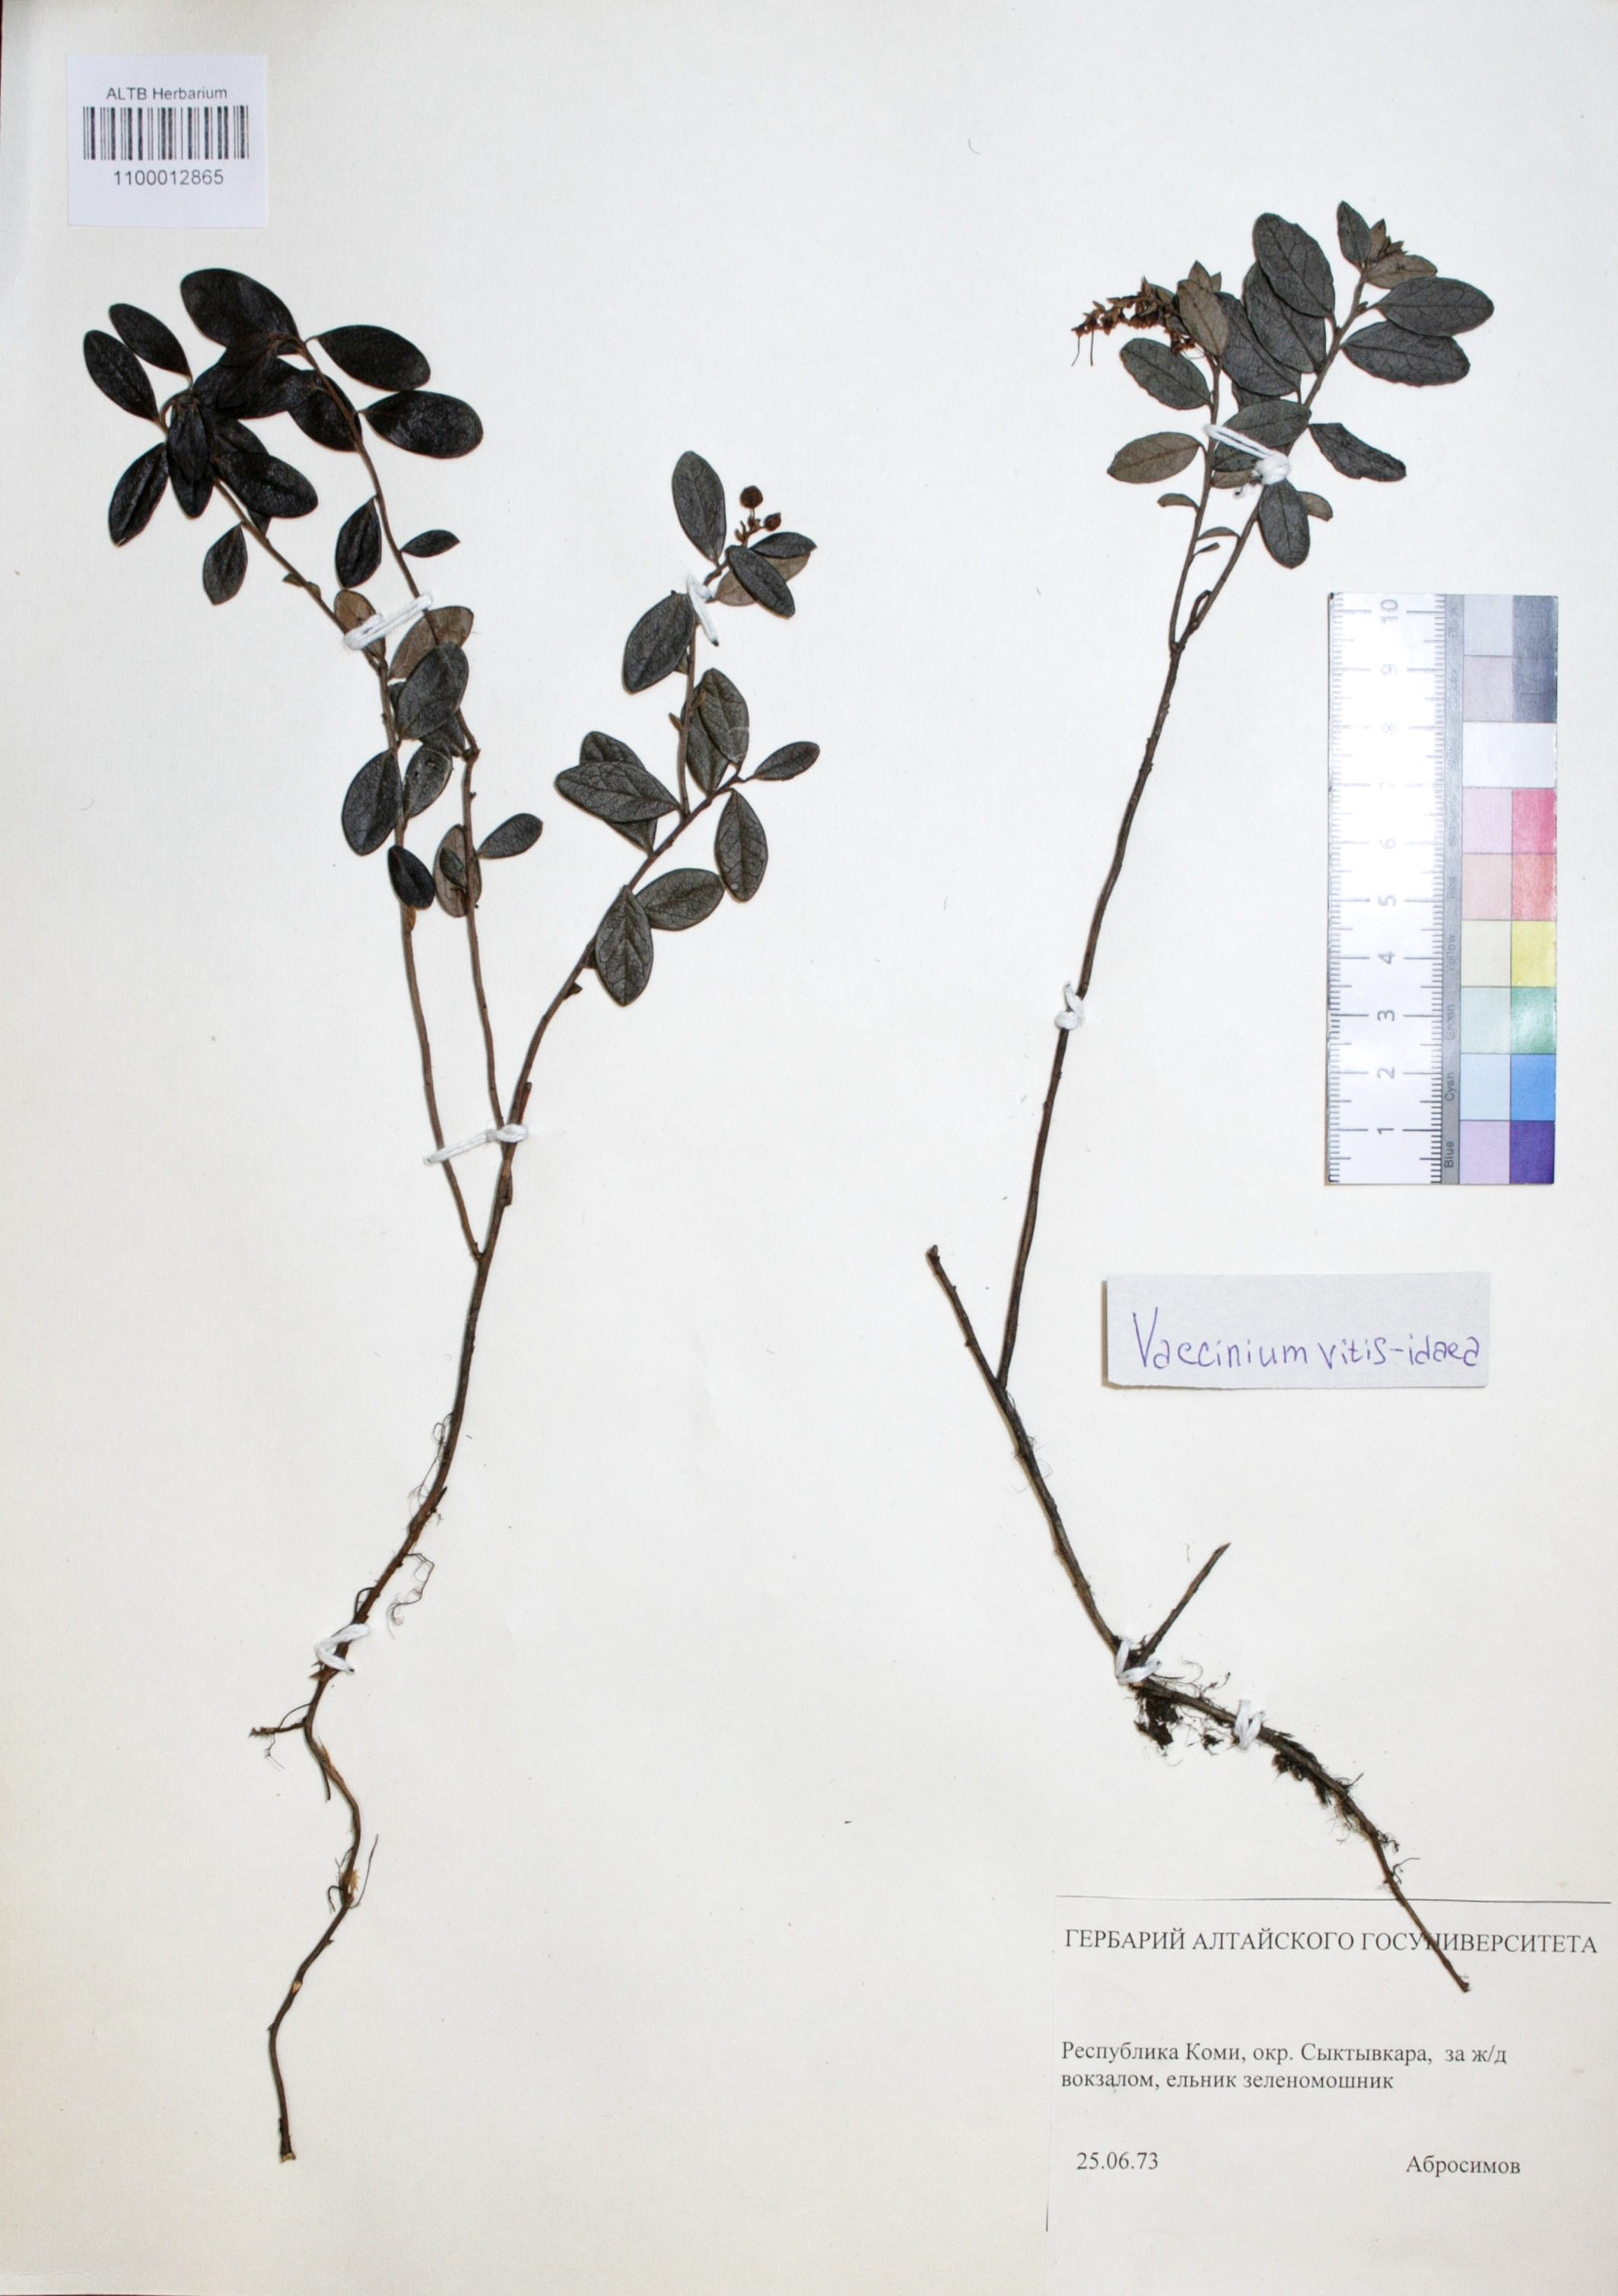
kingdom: Plantae
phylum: Tracheophyta
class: Magnoliopsida
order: Ericales
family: Ericaceae
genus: Vaccinium
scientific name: Vaccinium vitis-idaea
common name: Cowberry
